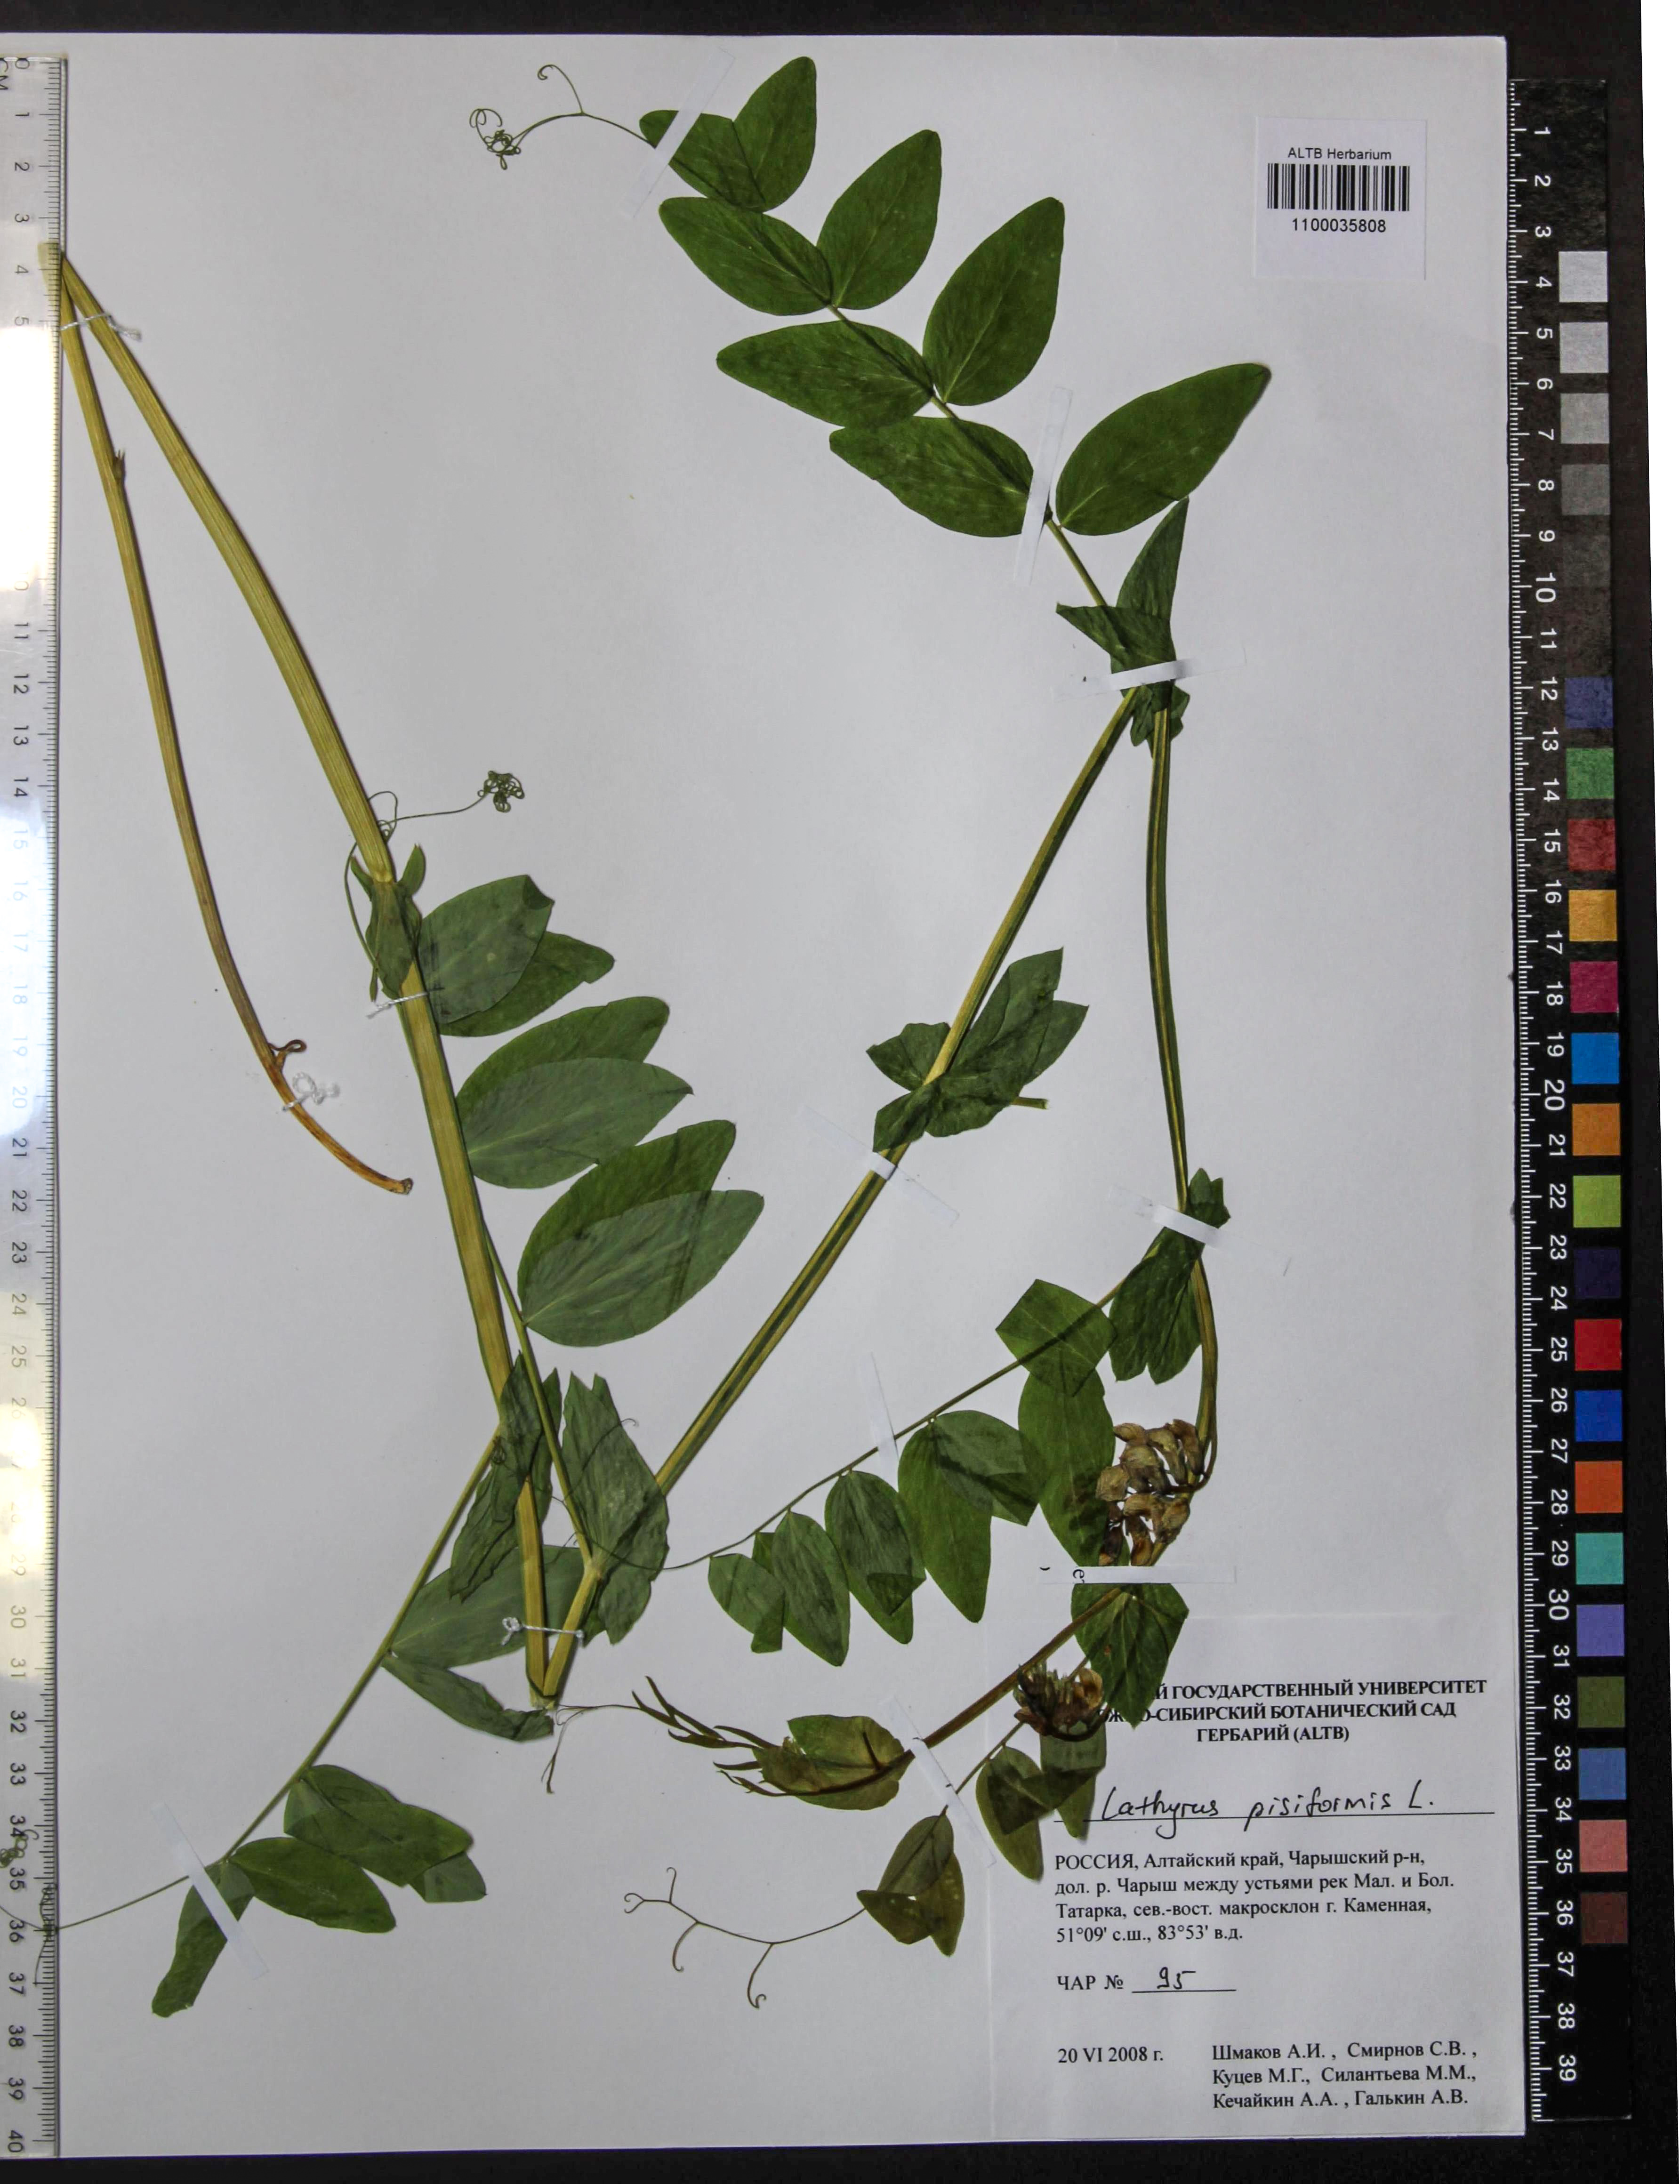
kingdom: Plantae
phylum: Tracheophyta
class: Magnoliopsida
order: Fabales
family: Fabaceae
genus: Lathyrus
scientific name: Lathyrus pisiformis
